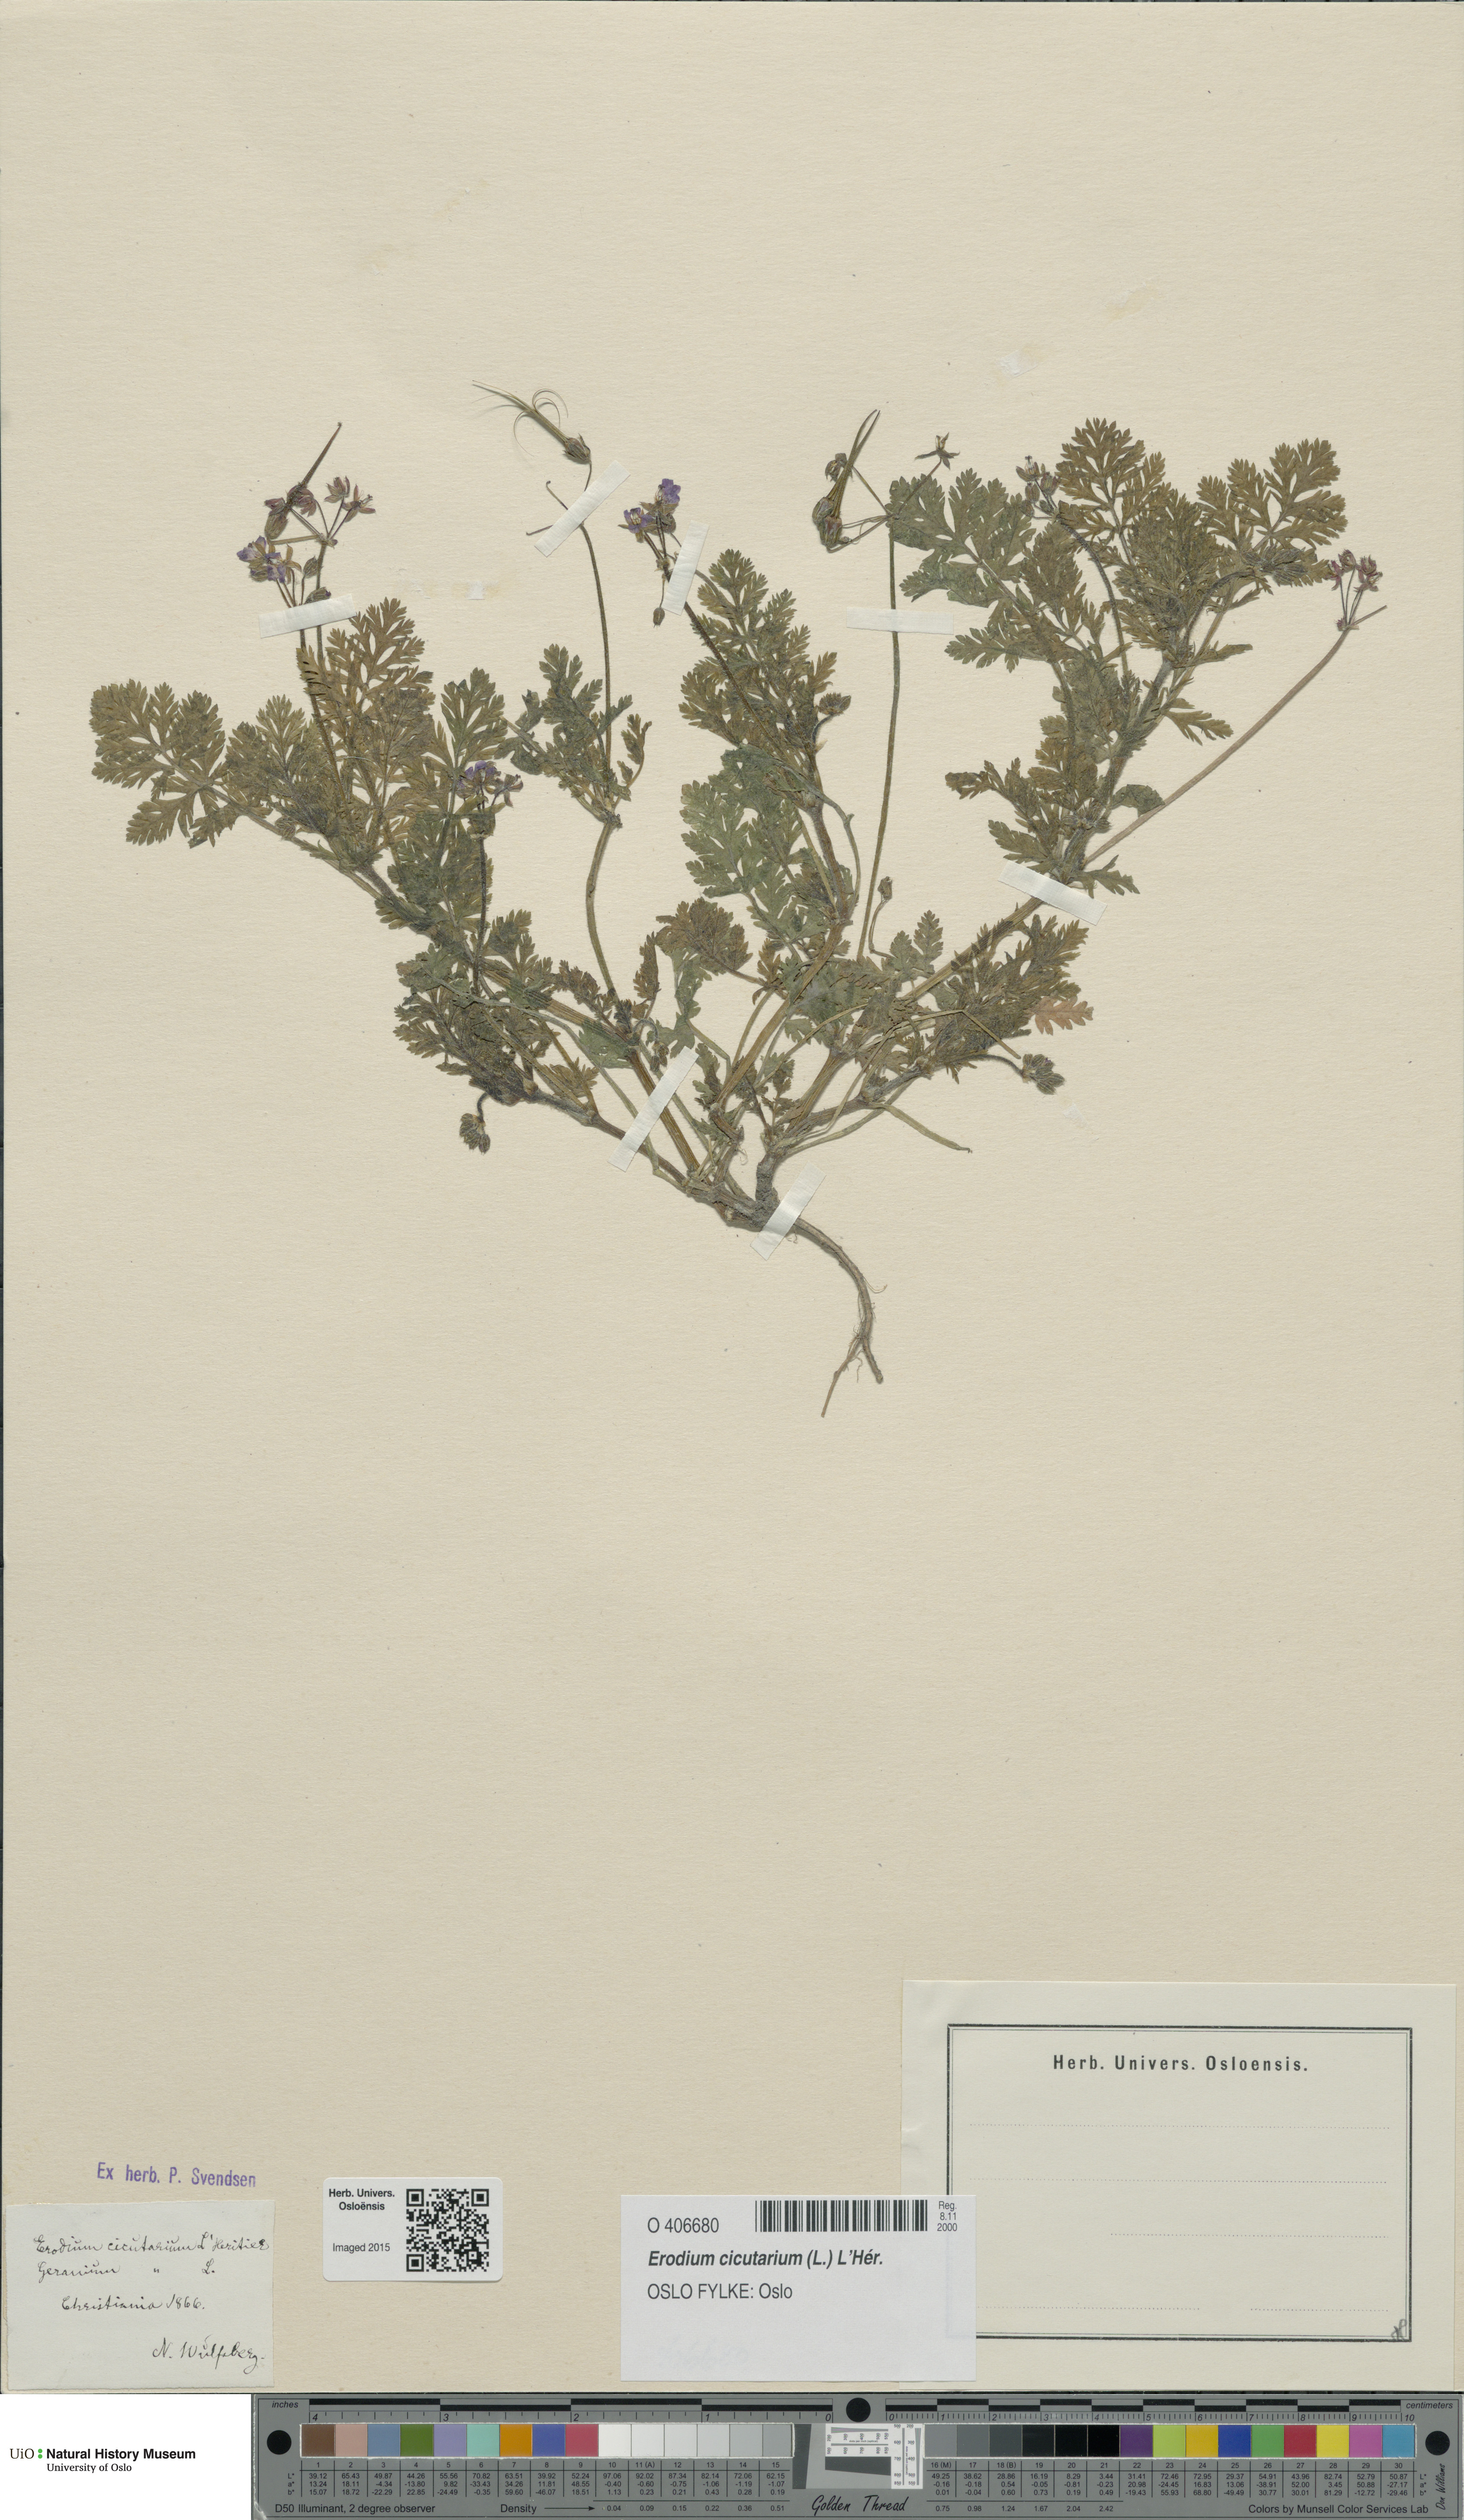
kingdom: Plantae
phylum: Tracheophyta
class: Magnoliopsida
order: Geraniales
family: Geraniaceae
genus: Erodium
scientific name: Erodium cicutarium
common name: Common stork's-bill
